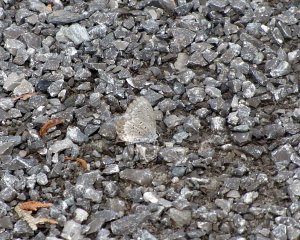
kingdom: Animalia
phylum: Arthropoda
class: Insecta
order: Lepidoptera
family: Lycaenidae
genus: Celastrina
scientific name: Celastrina lucia
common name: Northern Spring Azure
